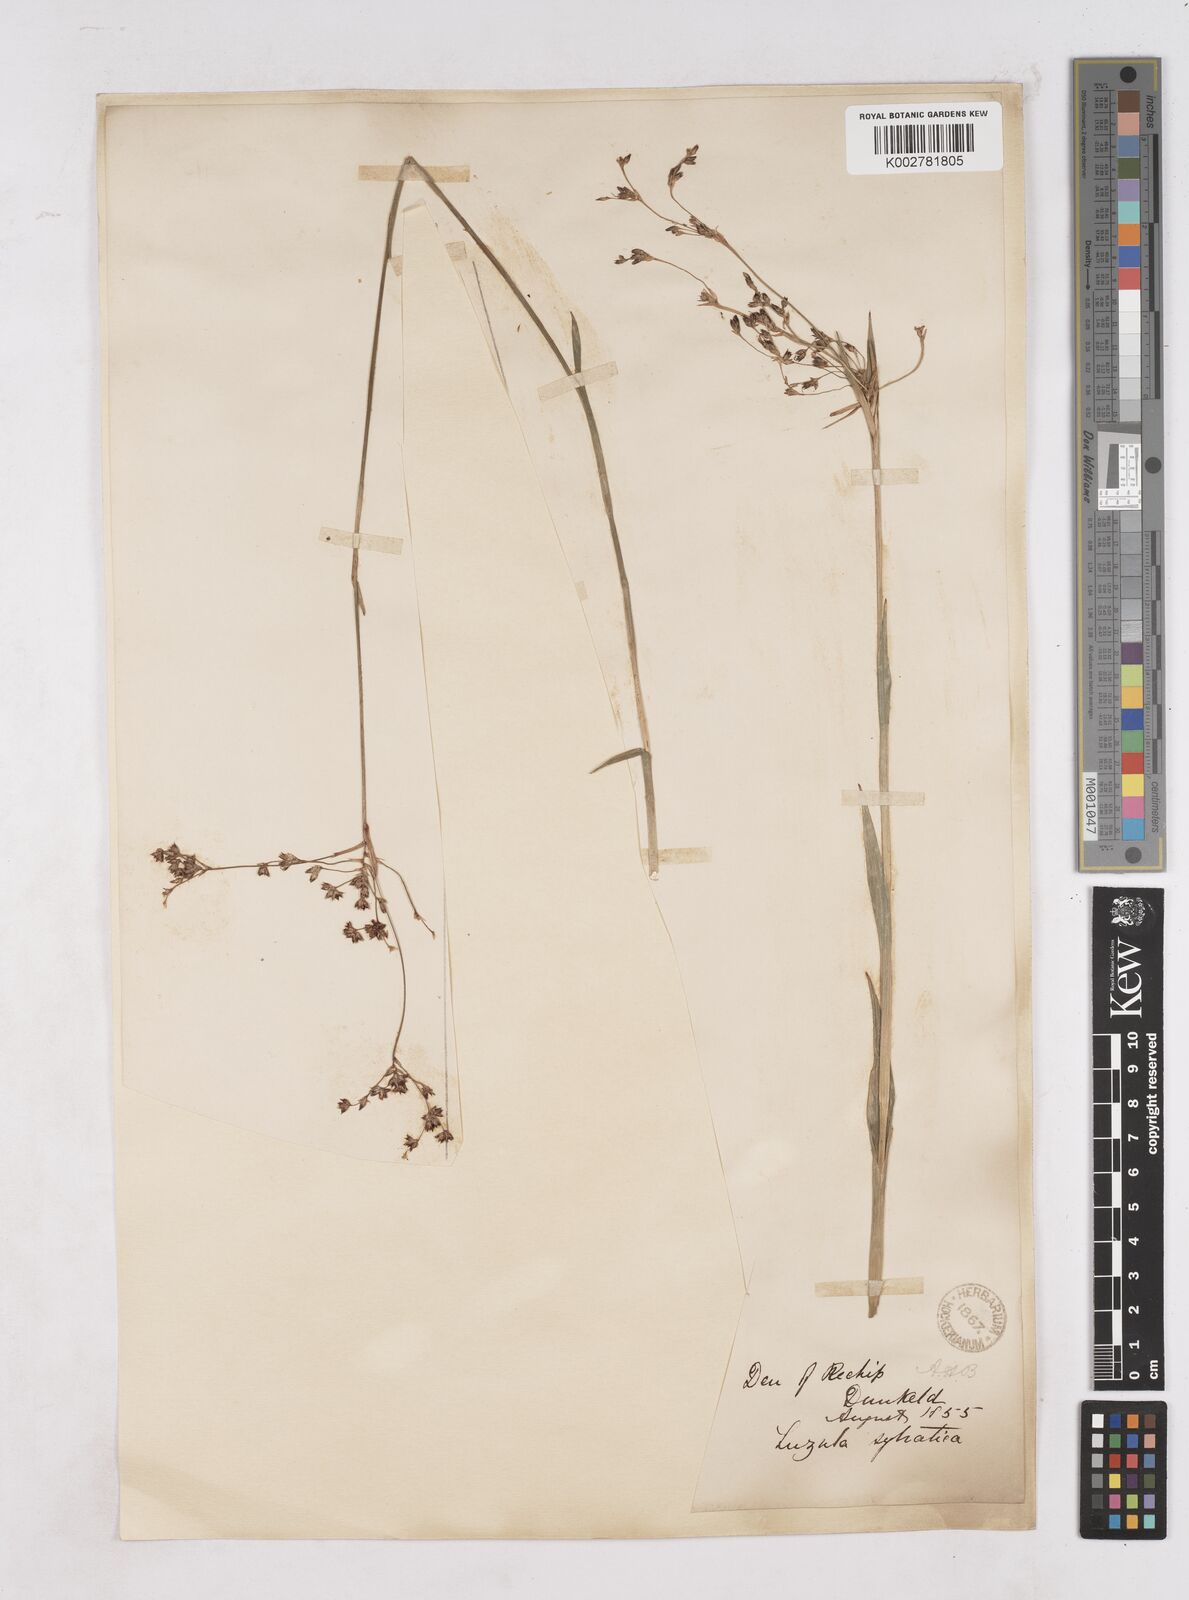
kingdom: Plantae
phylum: Tracheophyta
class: Liliopsida
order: Poales
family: Juncaceae
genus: Luzula
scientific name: Luzula sylvatica
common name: Great wood-rush
